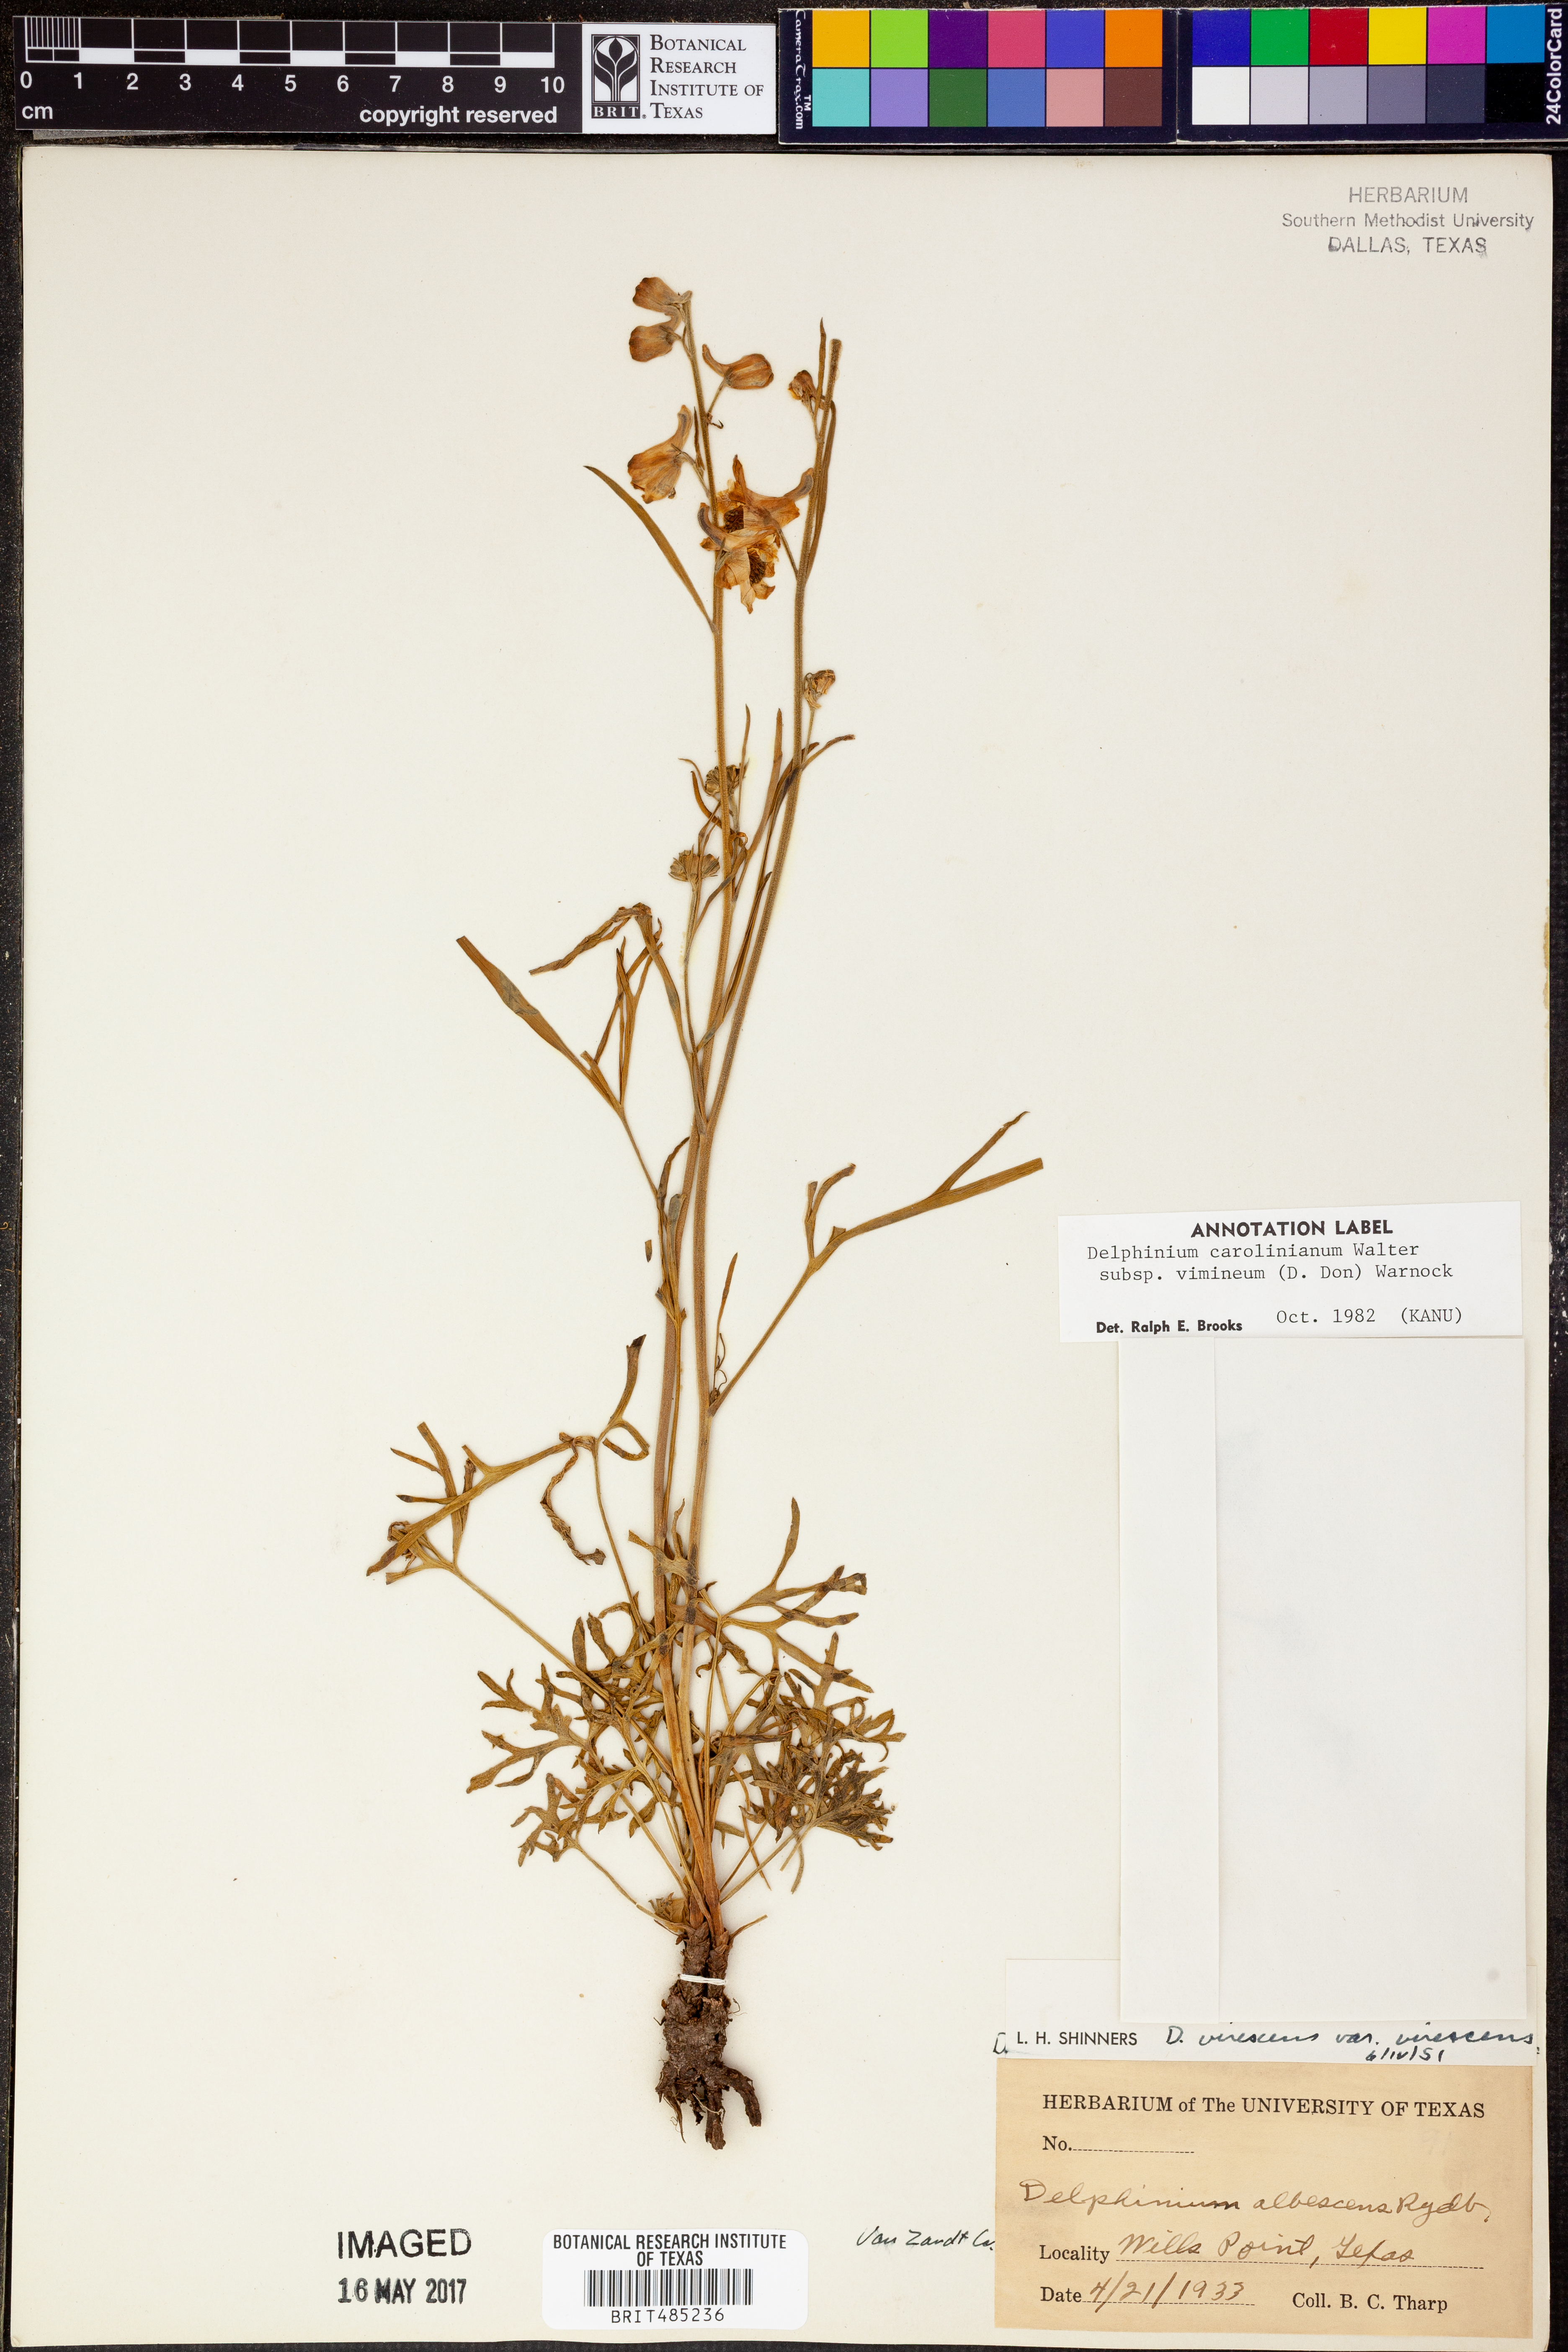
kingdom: Plantae
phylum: Tracheophyta
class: Magnoliopsida
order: Ranunculales
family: Ranunculaceae
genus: Delphinium
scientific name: Delphinium carolinianum
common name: Carolina larkspur
